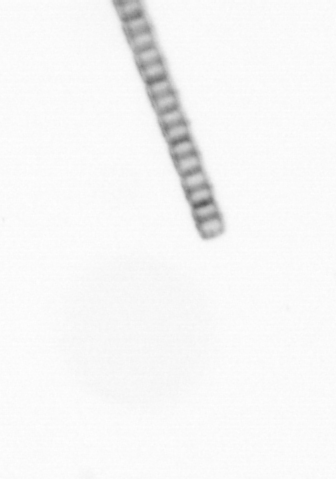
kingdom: Chromista
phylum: Ochrophyta
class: Bacillariophyceae
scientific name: Bacillariophyceae
